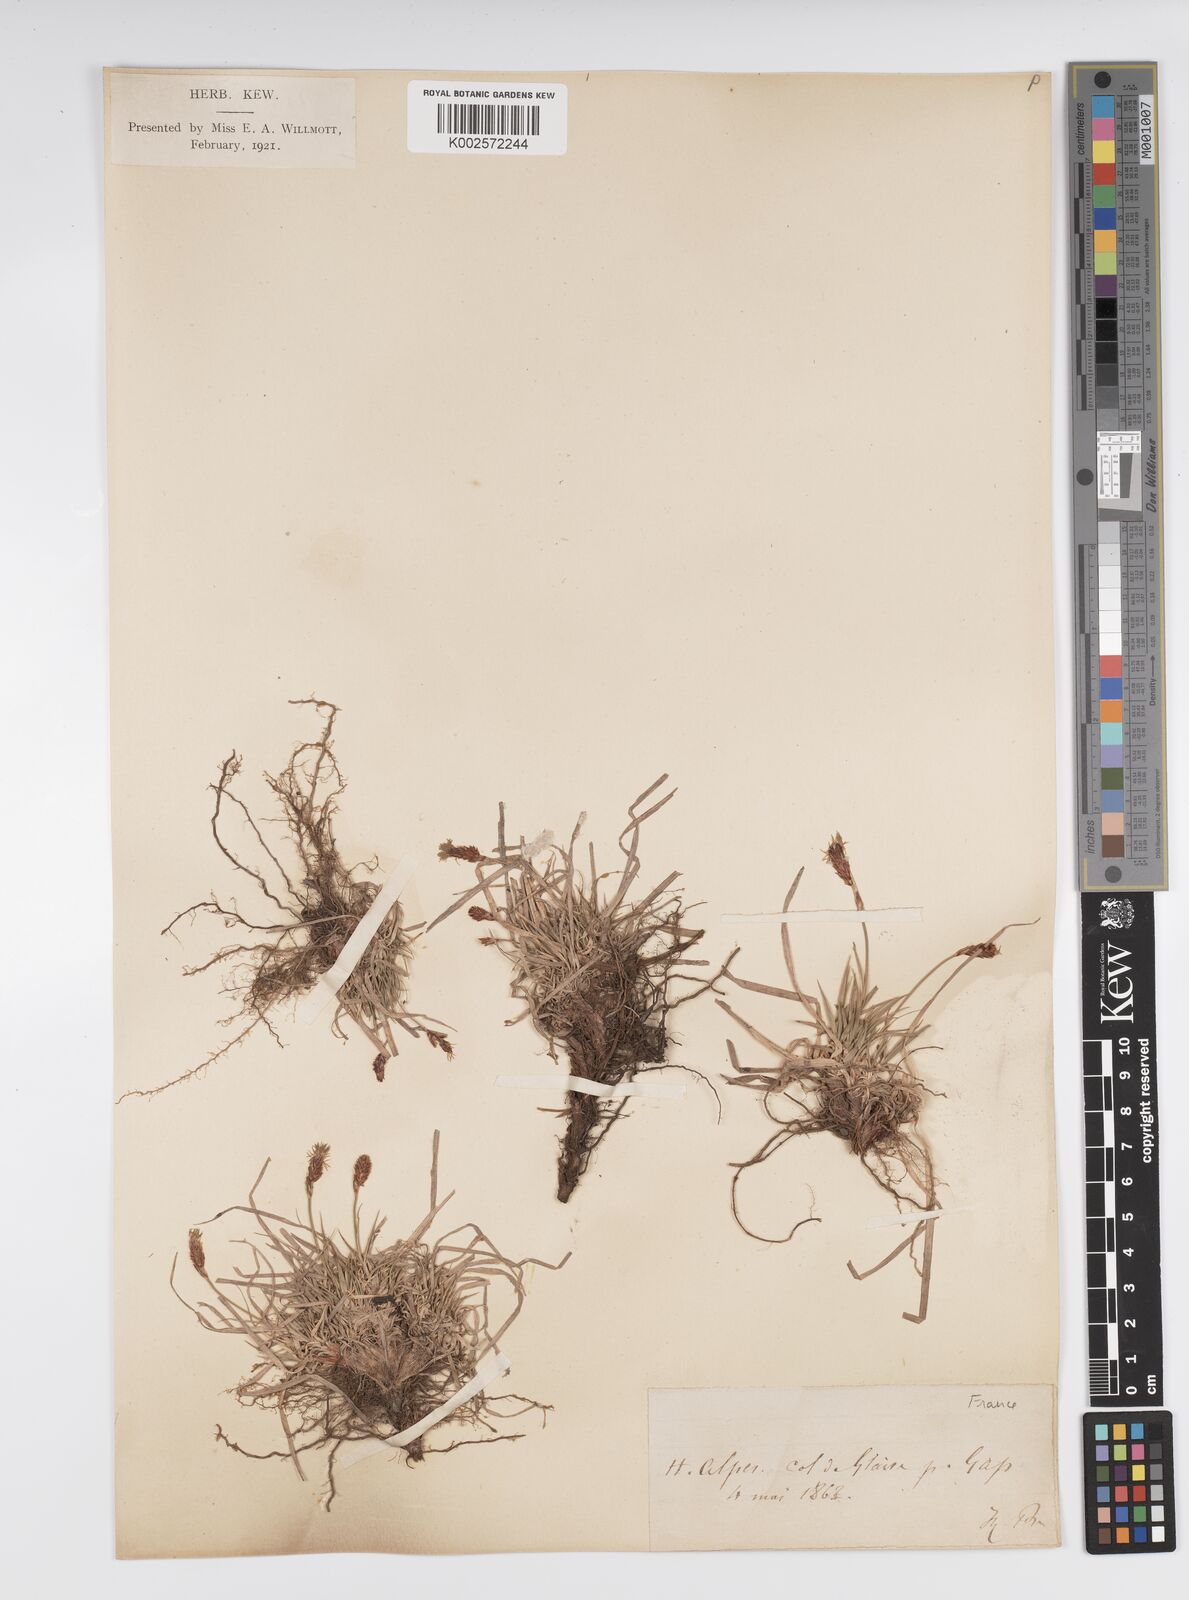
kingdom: Plantae
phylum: Tracheophyta
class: Liliopsida
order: Poales
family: Cyperaceae
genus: Carex
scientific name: Carex humilis
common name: Dwarf sedge
